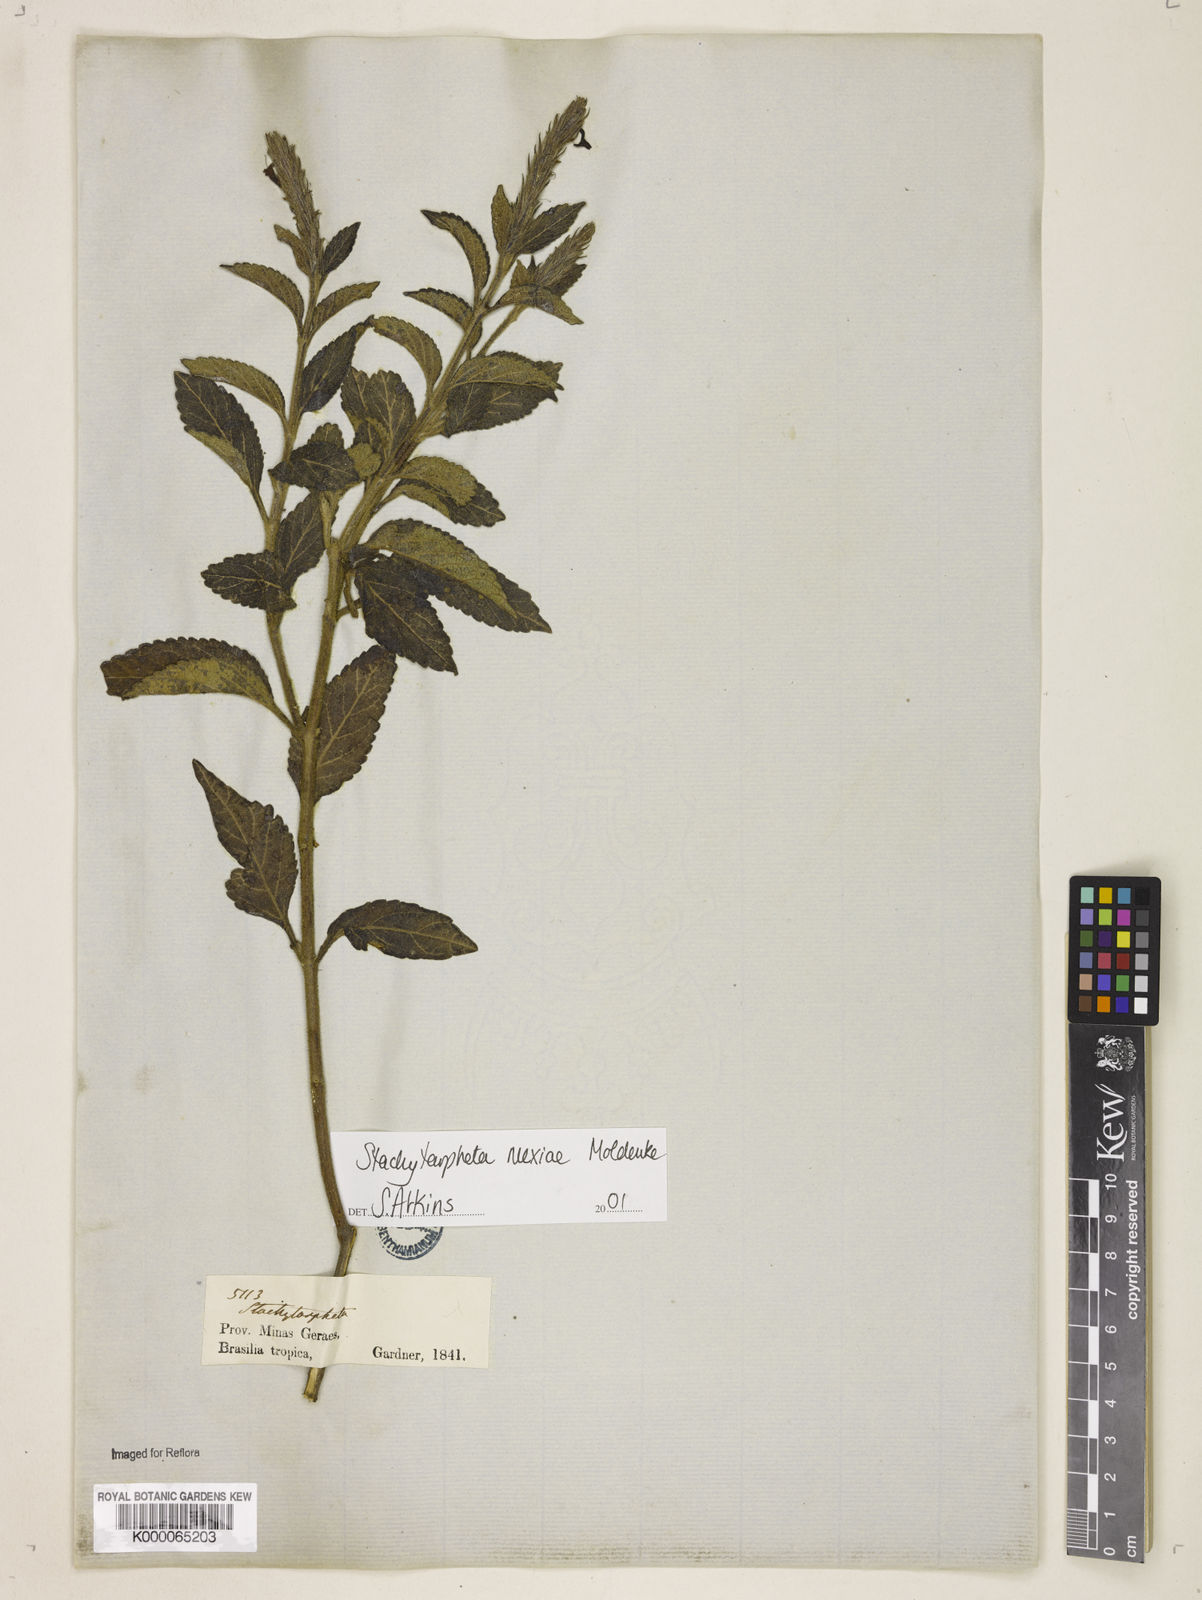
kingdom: Plantae
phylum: Tracheophyta
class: Magnoliopsida
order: Lamiales
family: Verbenaceae
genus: Stachytarpheta
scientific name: Stachytarpheta mexiae
